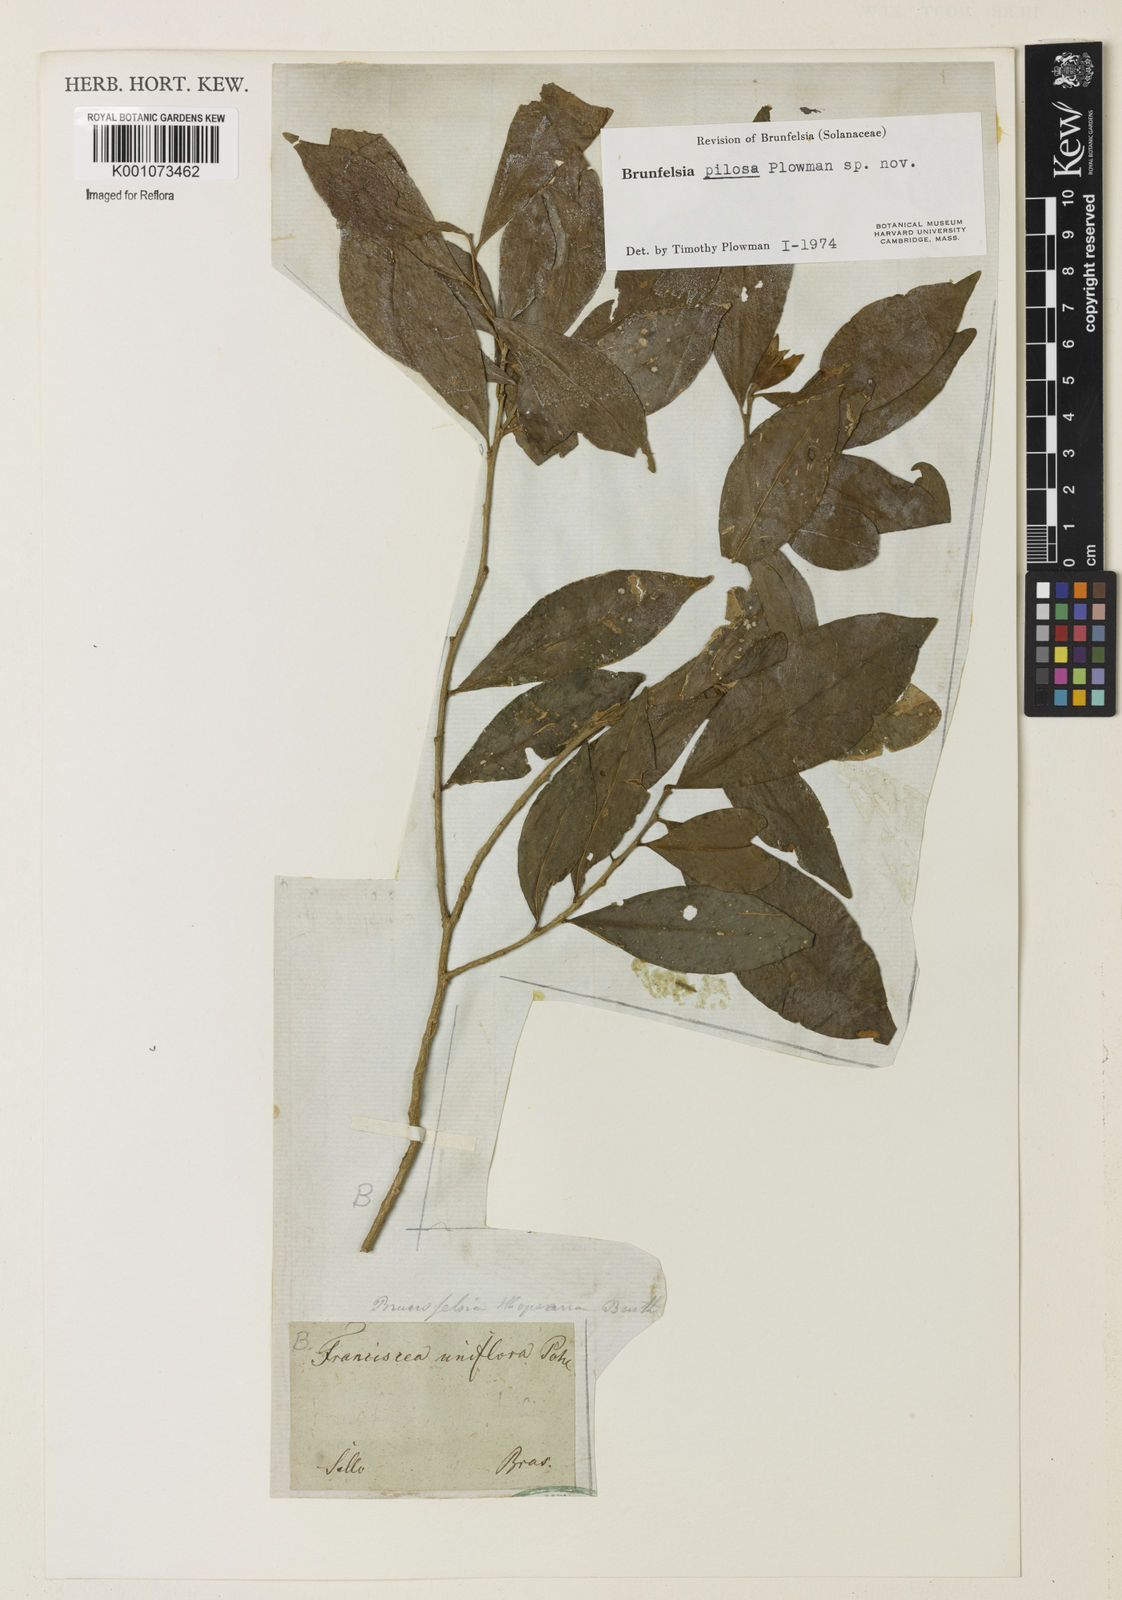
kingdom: Plantae
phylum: Tracheophyta
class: Magnoliopsida
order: Solanales
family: Solanaceae
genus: Brunfelsia
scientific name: Brunfelsia pilosa
